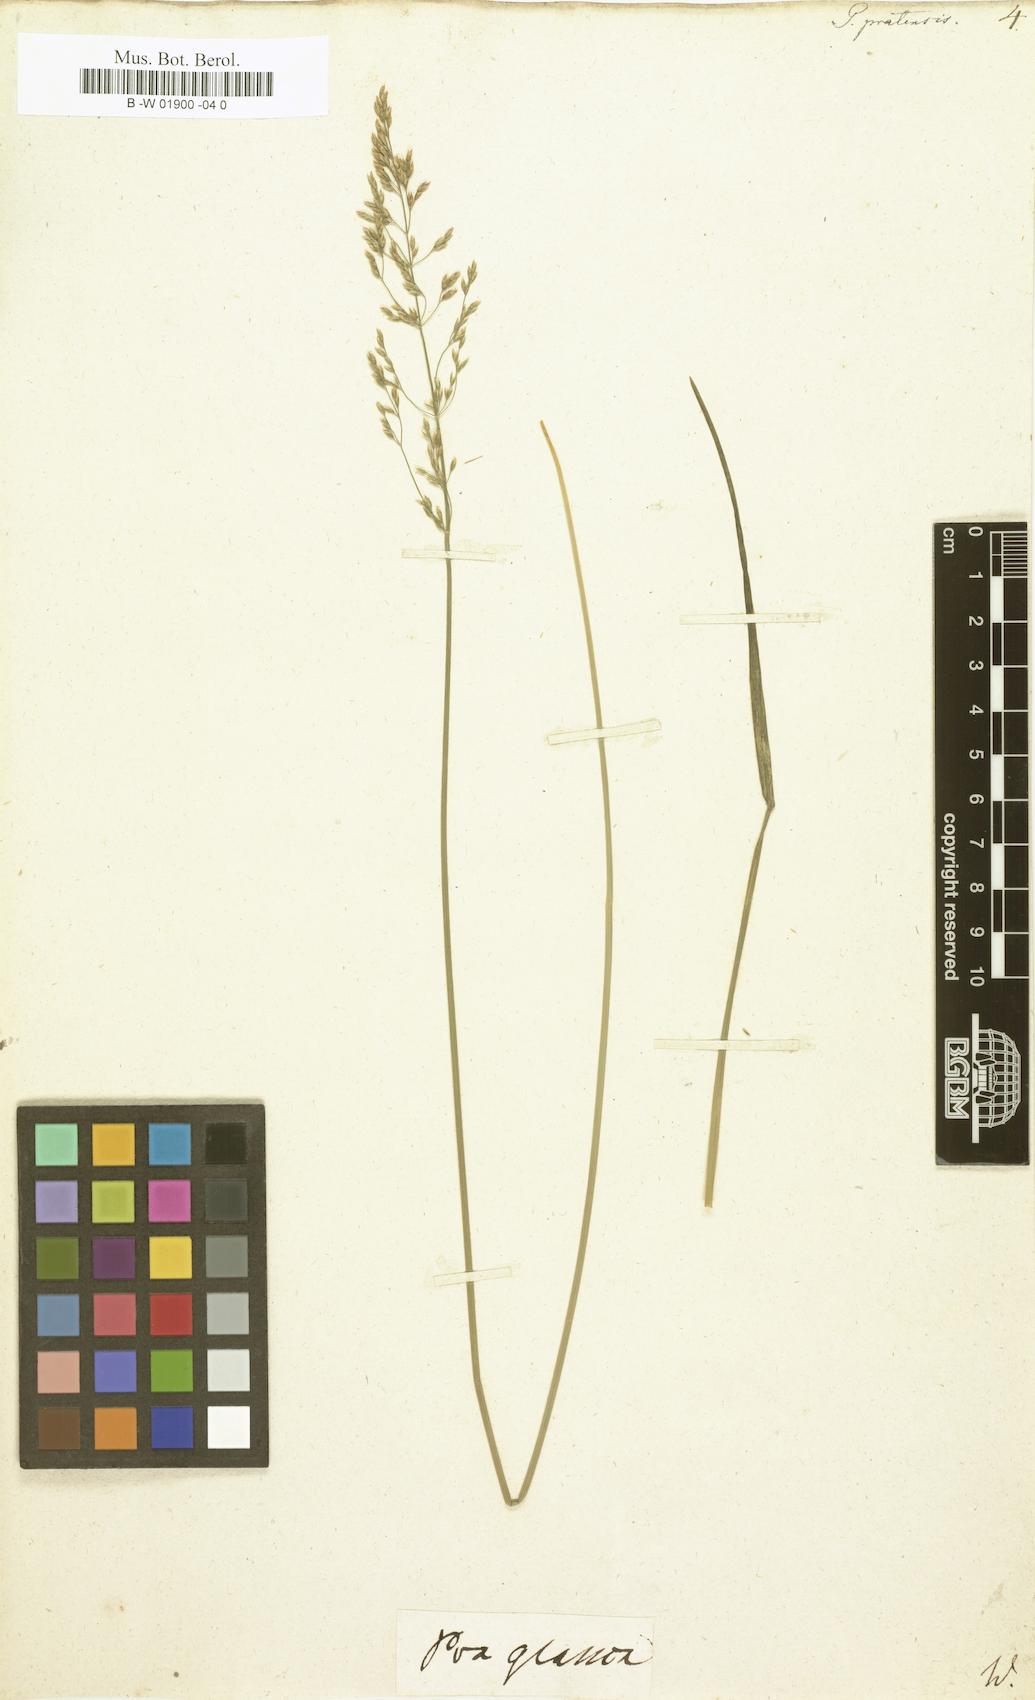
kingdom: Plantae
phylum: Tracheophyta
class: Liliopsida
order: Poales
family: Poaceae
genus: Poa
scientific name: Poa pratensis
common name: Kentucky bluegrass
